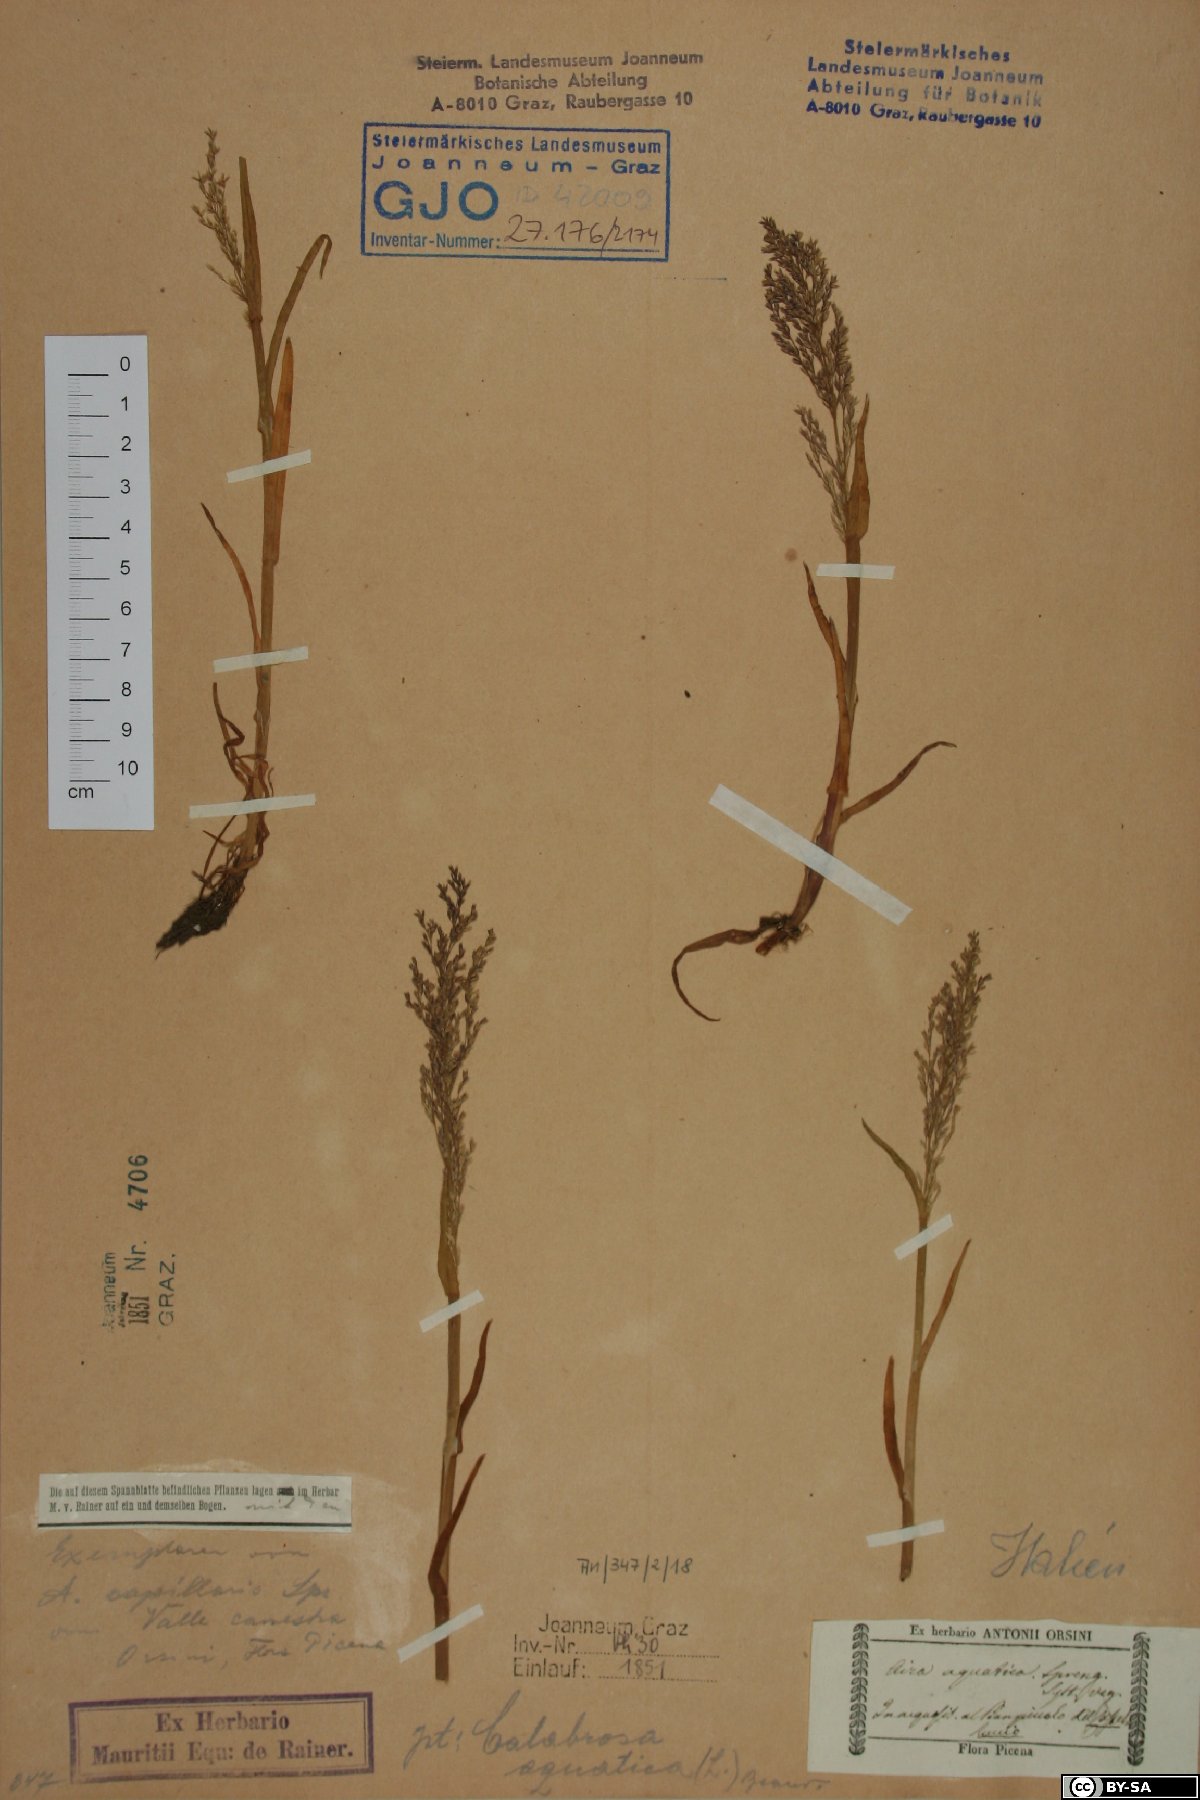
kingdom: Plantae
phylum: Tracheophyta
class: Liliopsida
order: Poales
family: Poaceae
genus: Catabrosa
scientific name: Catabrosa aquatica
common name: Whorl-grass
